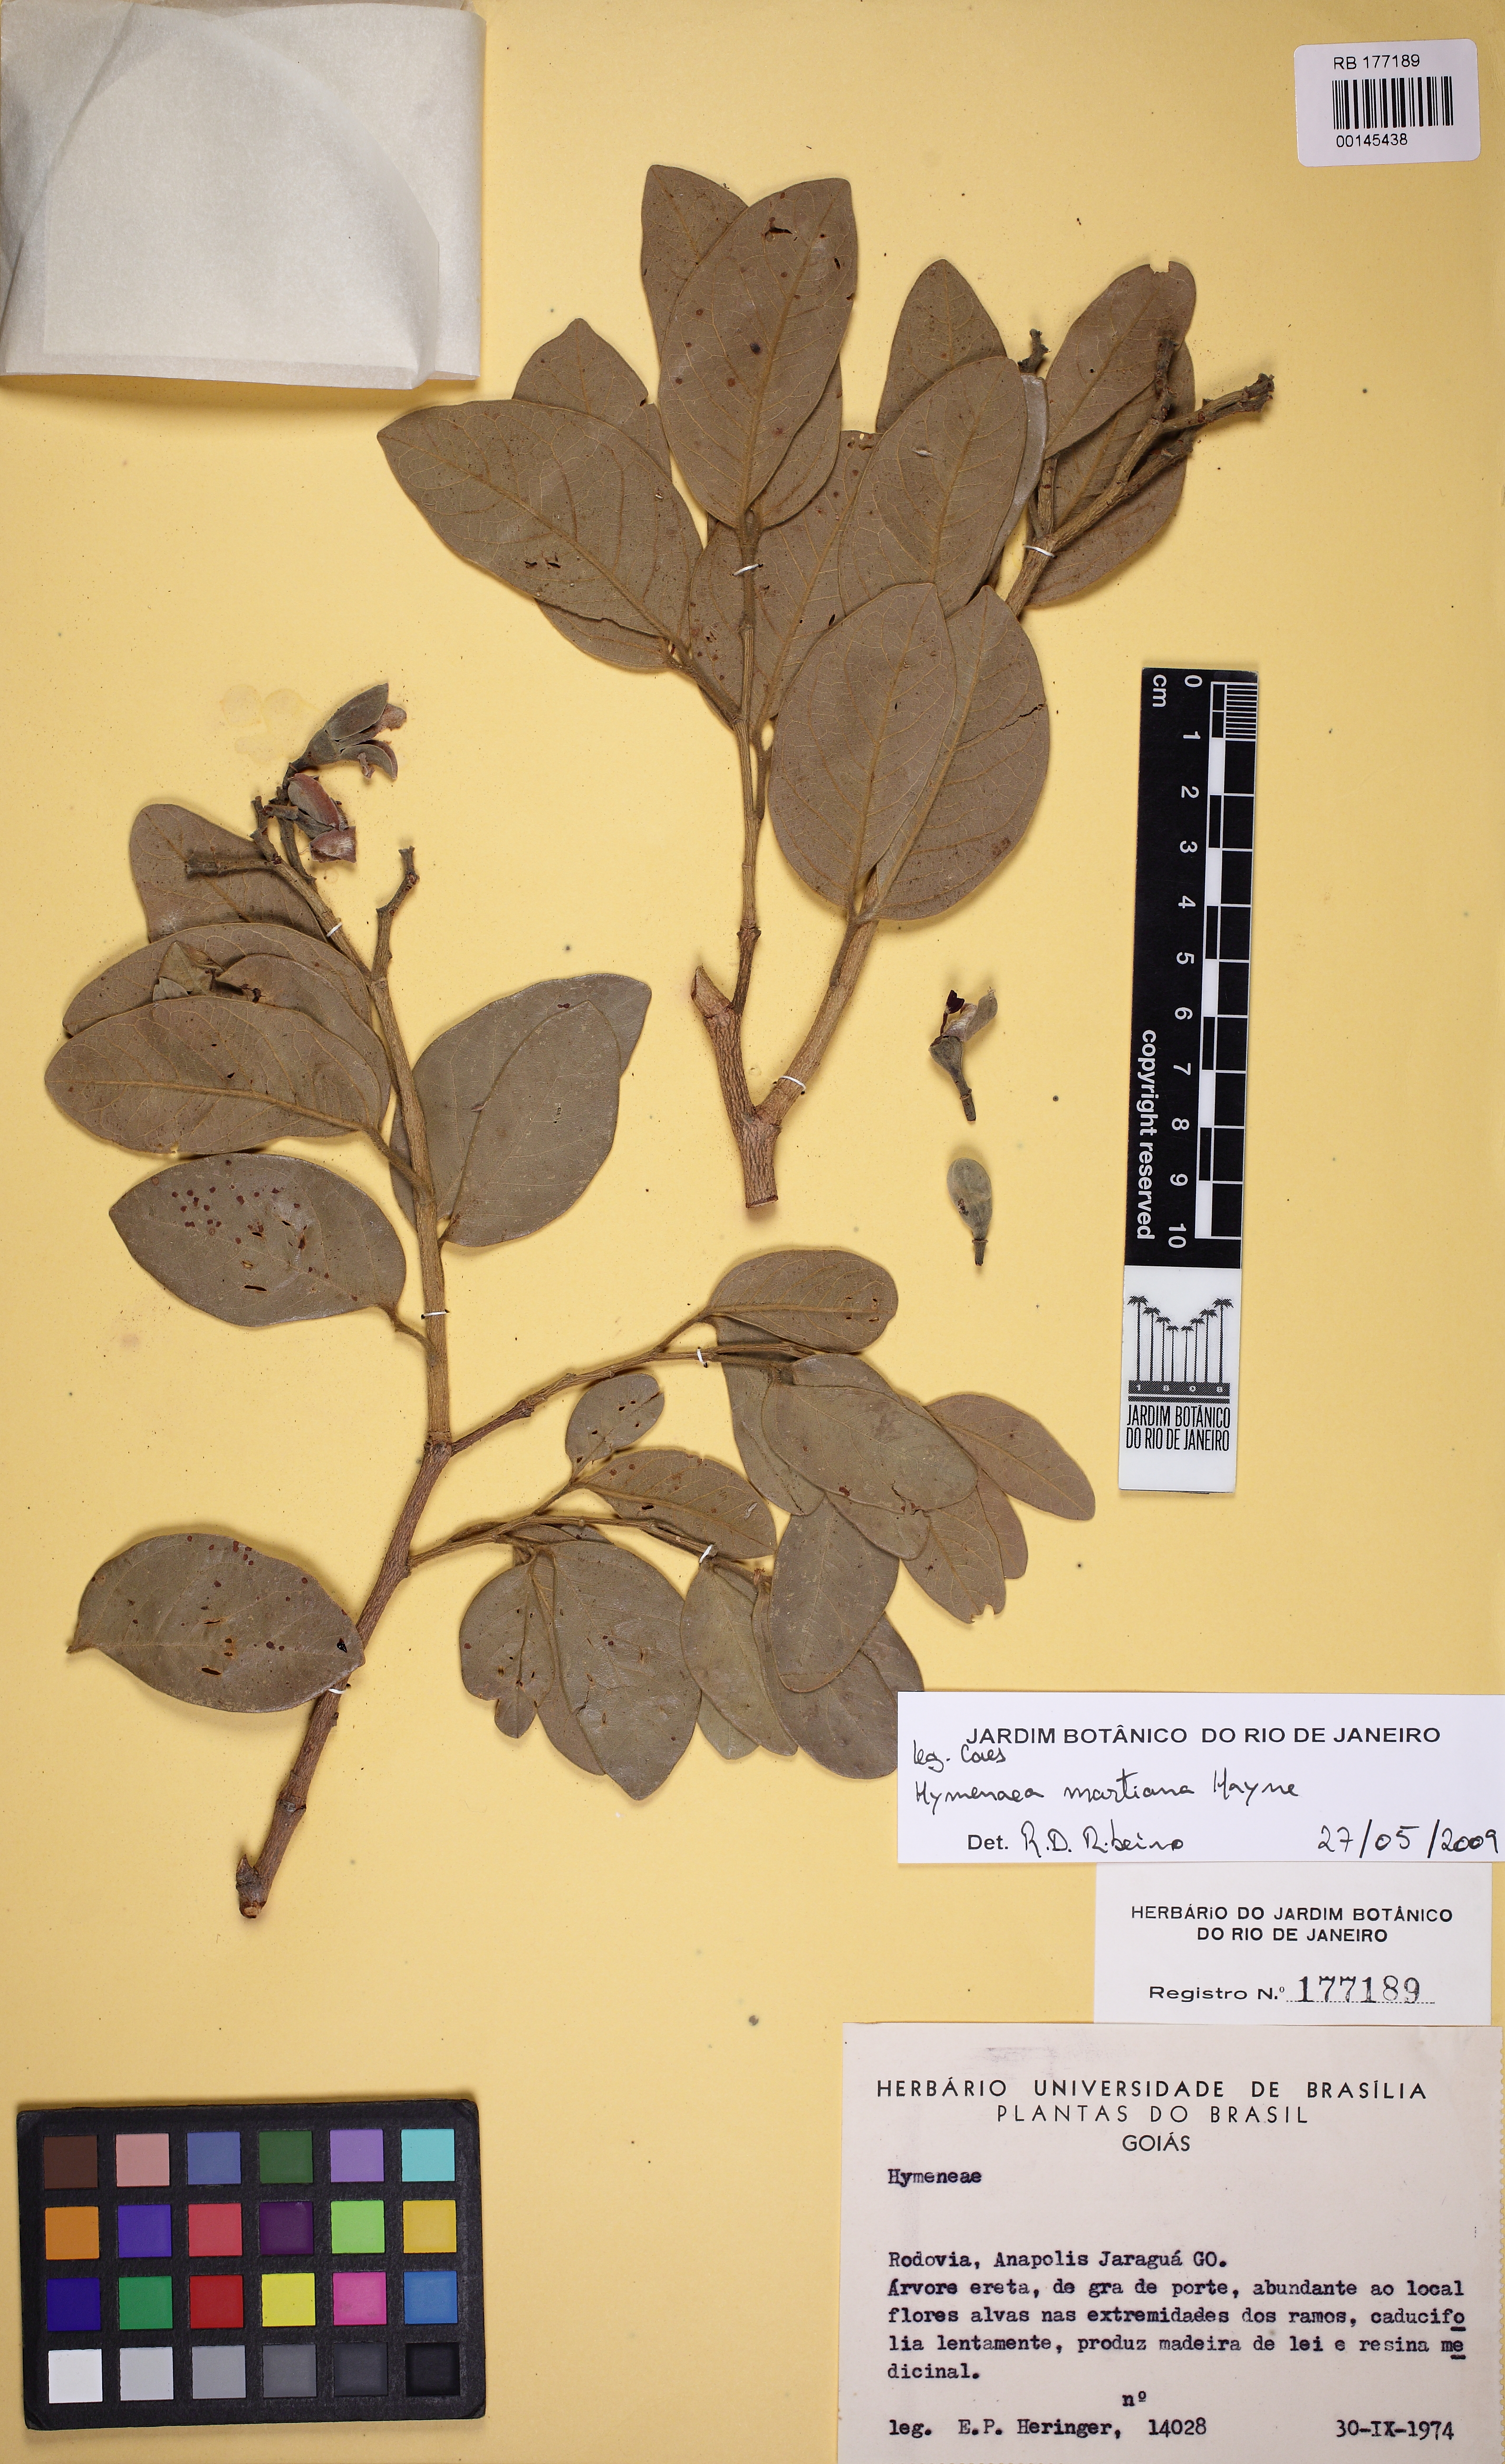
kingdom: Plantae
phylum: Tracheophyta
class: Magnoliopsida
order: Fabales
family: Fabaceae
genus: Hymenaea
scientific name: Hymenaea martiana
